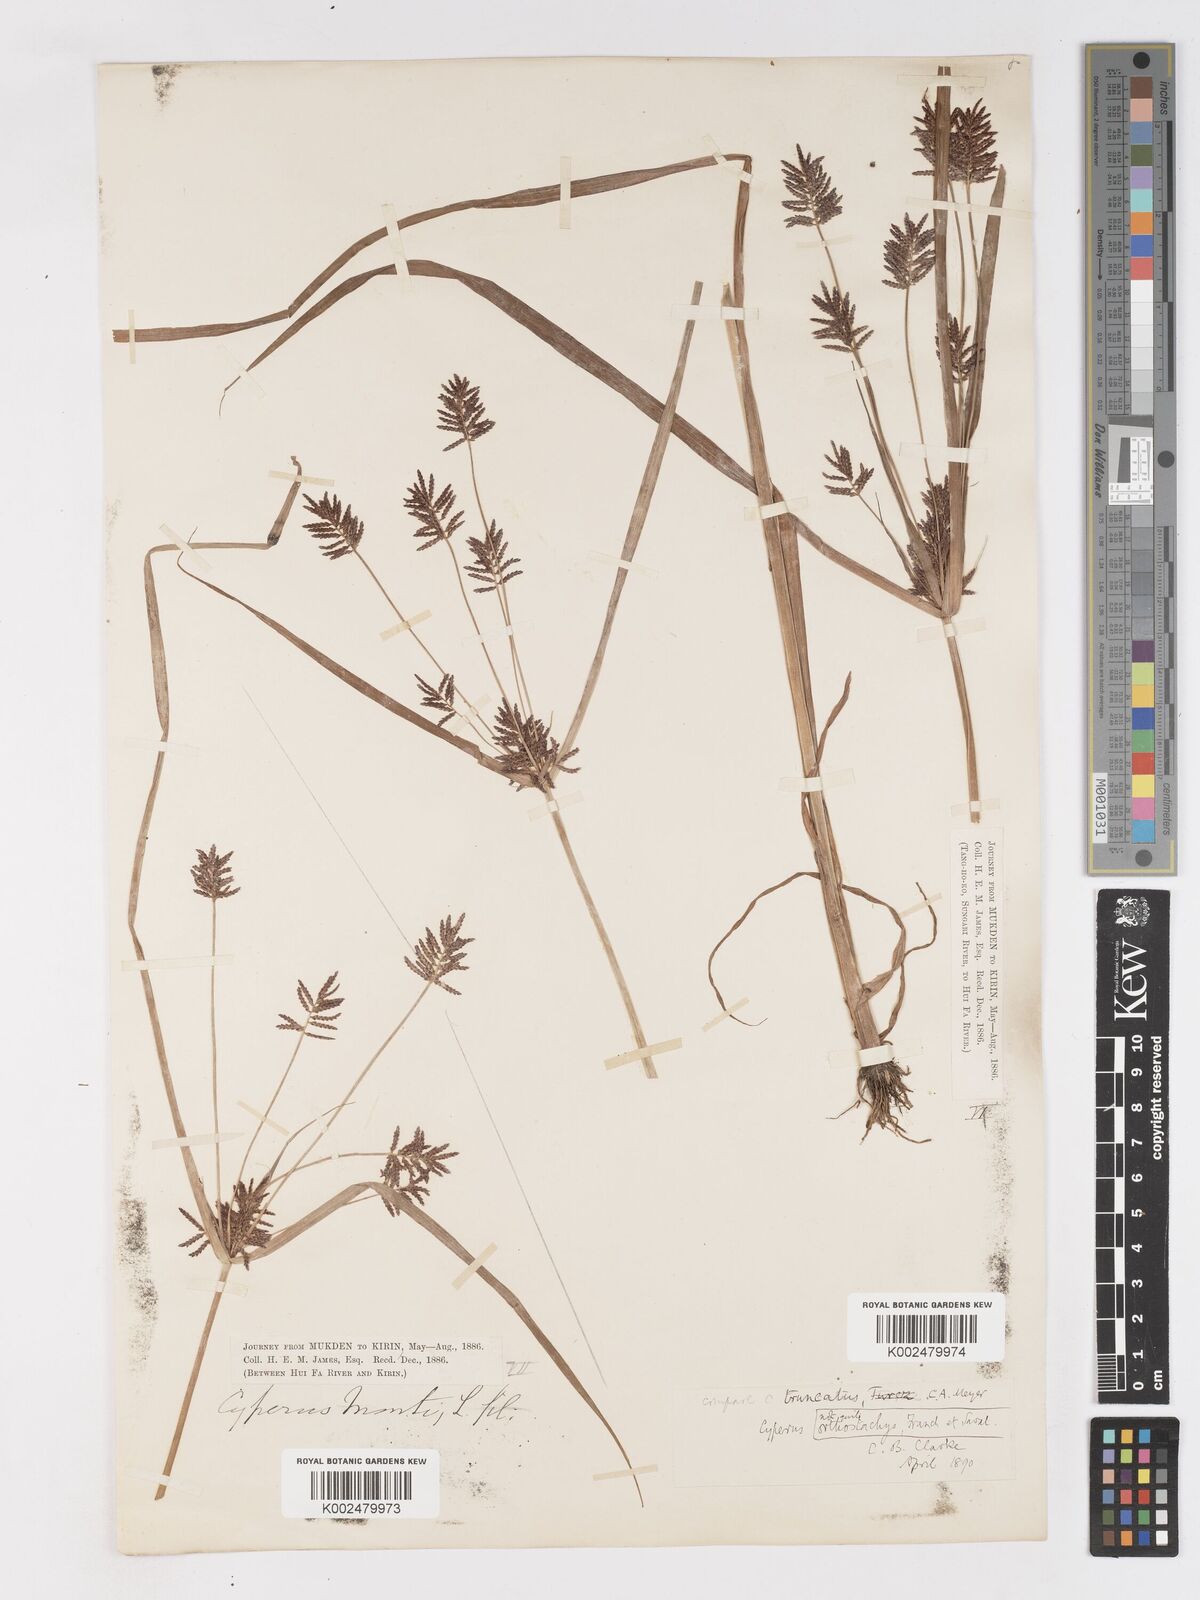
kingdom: Plantae
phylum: Tracheophyta
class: Liliopsida
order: Poales
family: Cyperaceae
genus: Cyperus
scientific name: Cyperus orthostachyus
